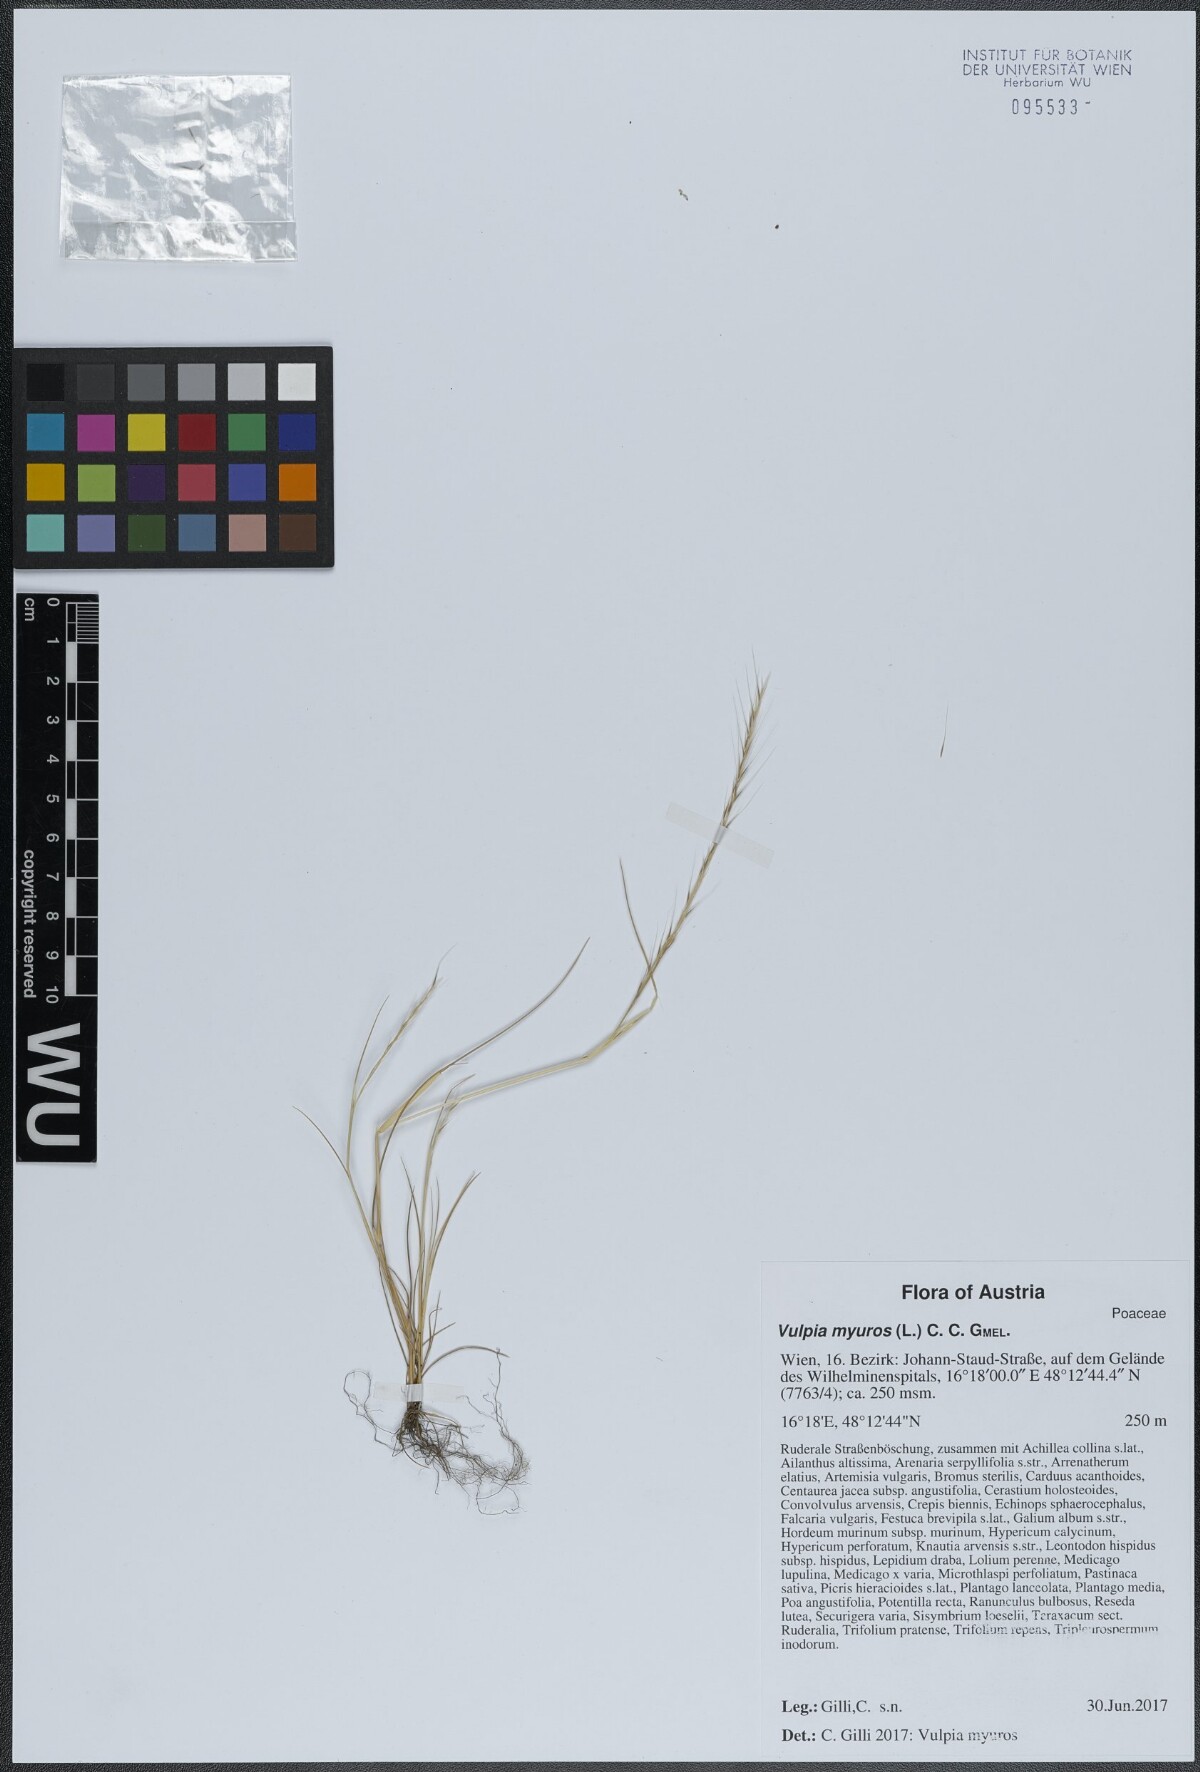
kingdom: Plantae
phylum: Tracheophyta
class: Liliopsida
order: Poales
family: Poaceae
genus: Festuca
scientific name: Festuca myuros
